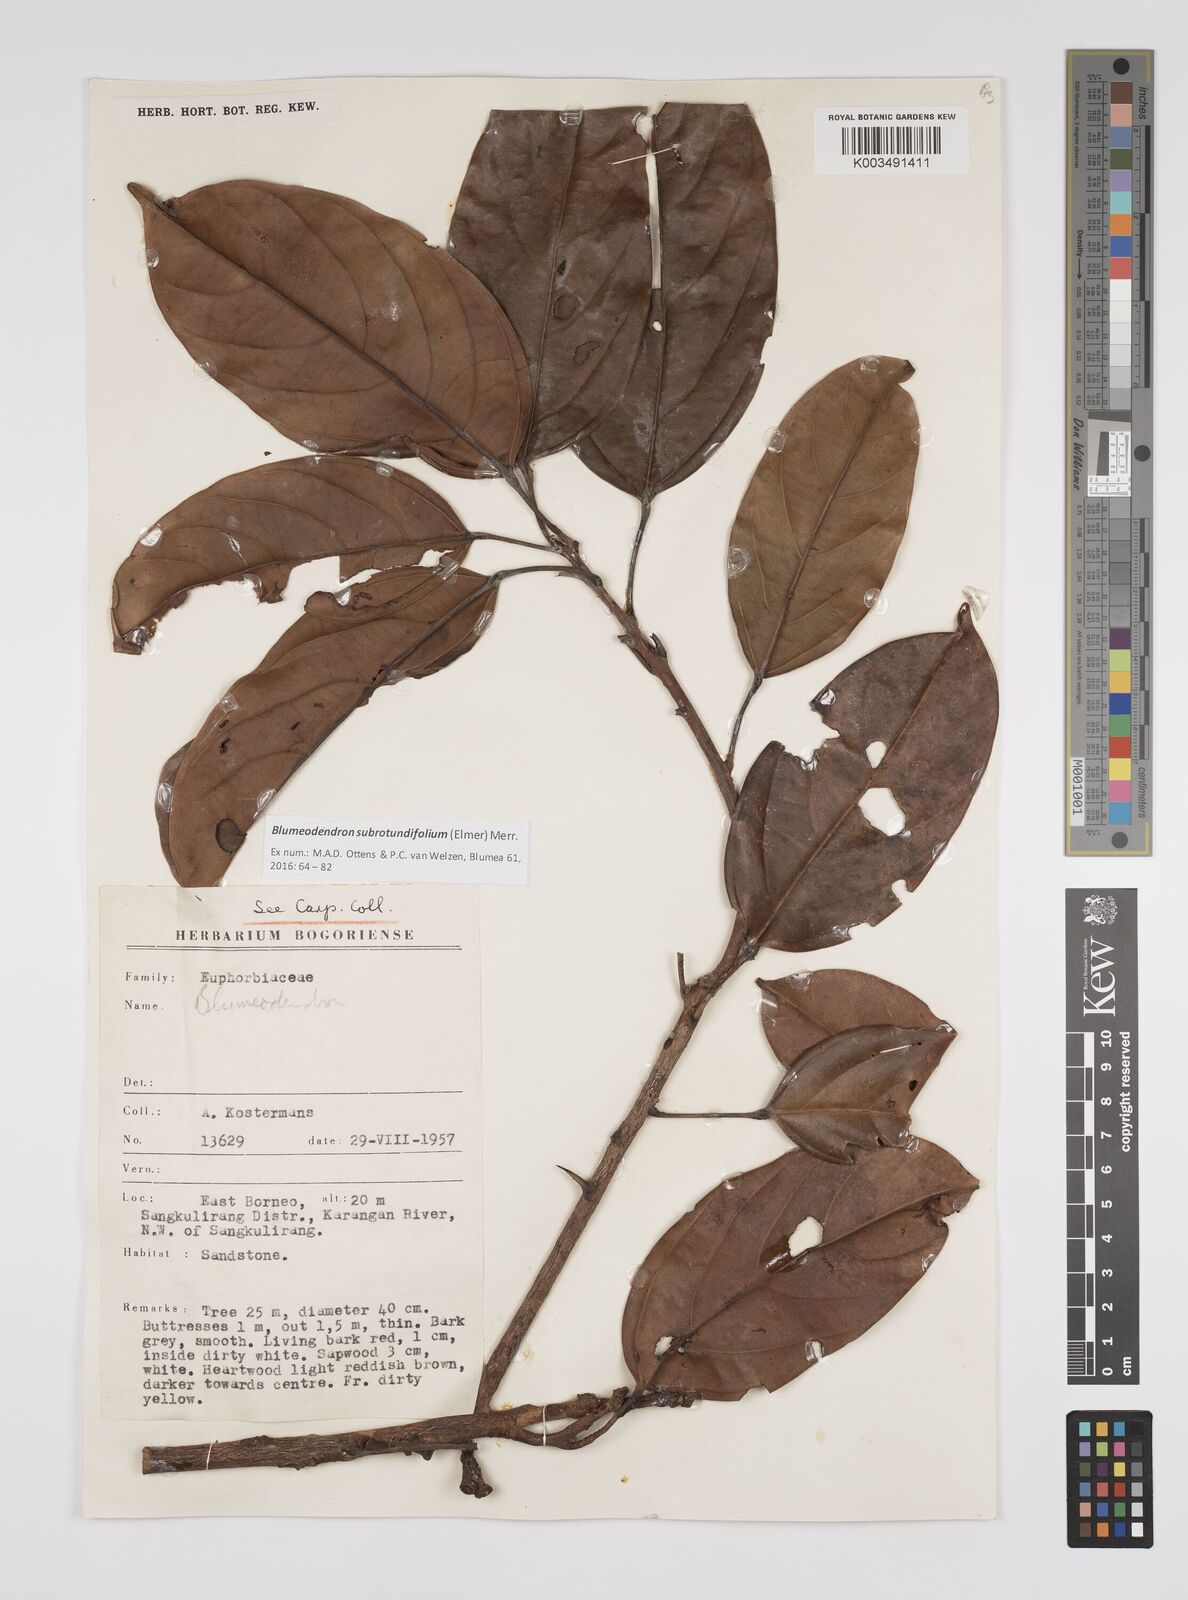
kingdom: Plantae
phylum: Tracheophyta
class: Magnoliopsida
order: Malpighiales
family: Euphorbiaceae
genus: Blumeodendron
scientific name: Blumeodendron subrotundifolium
